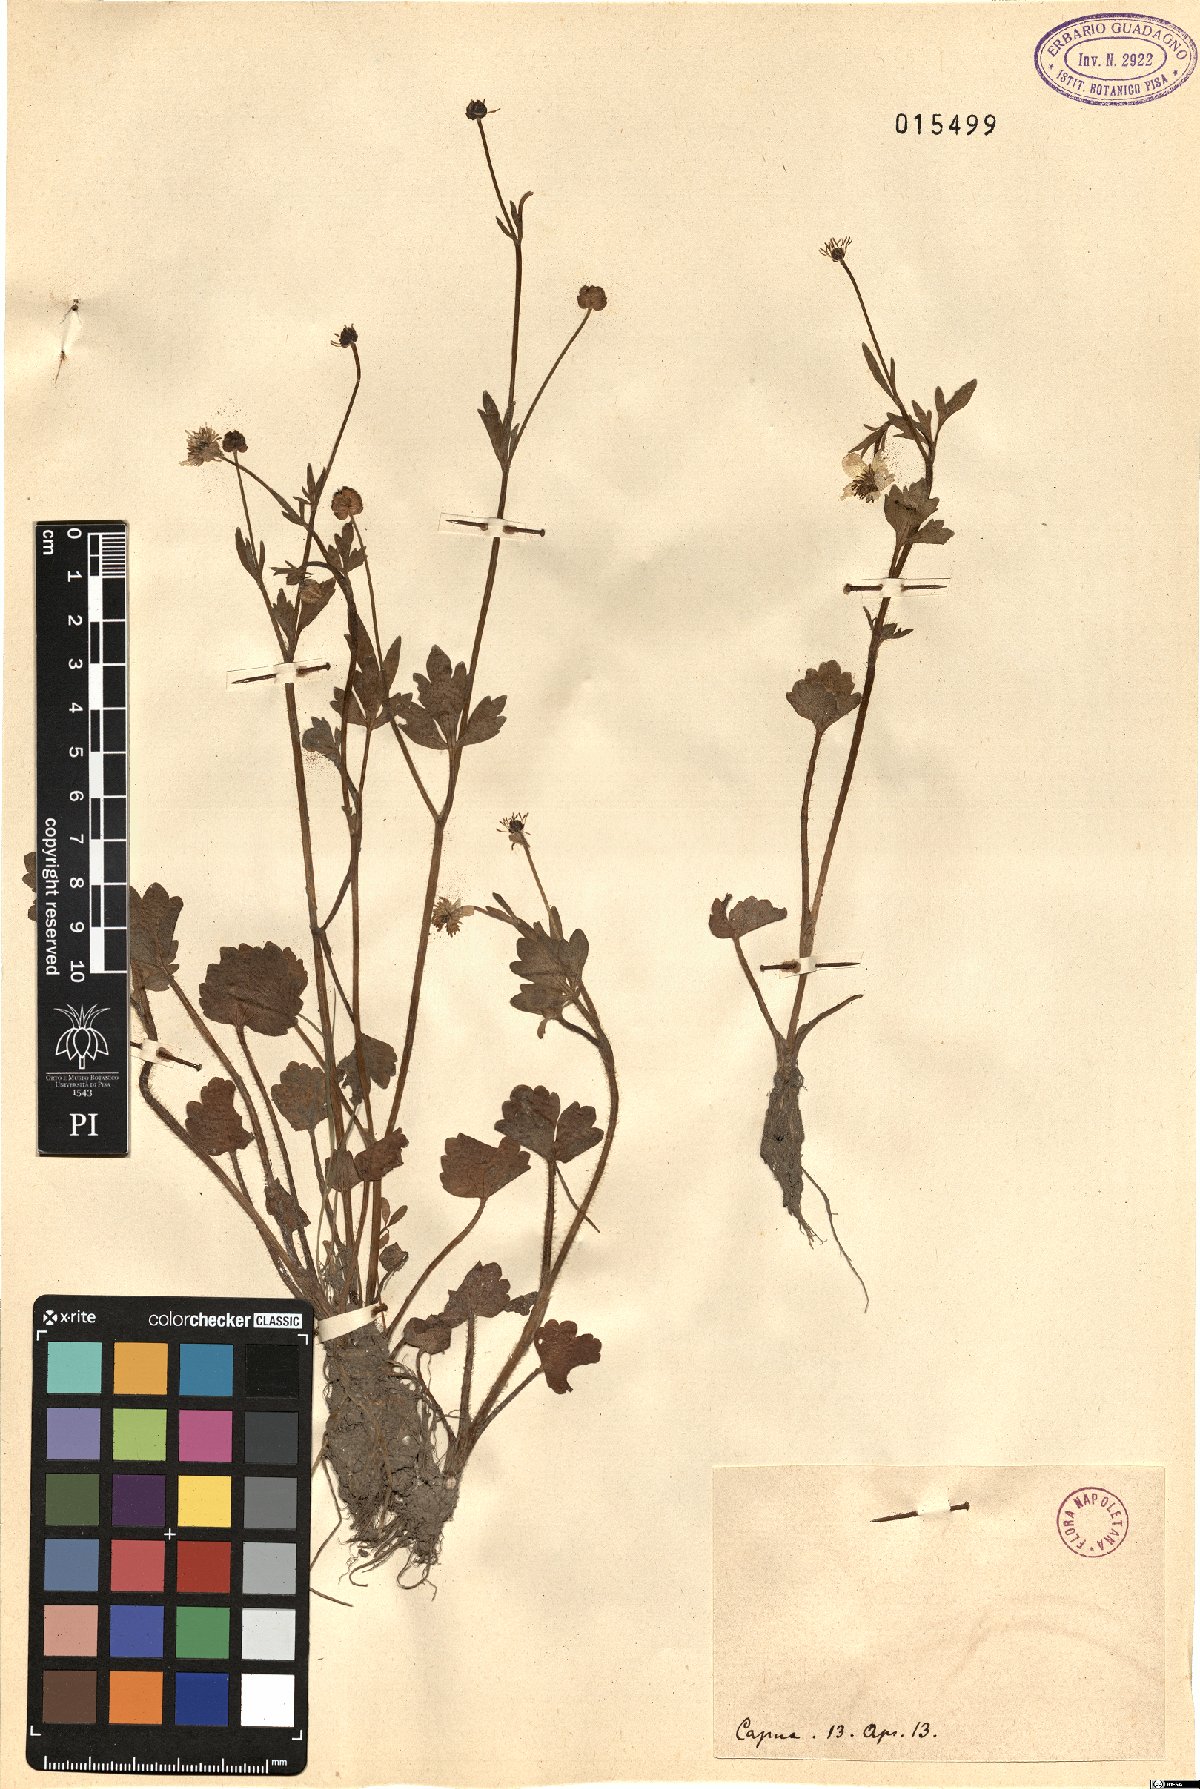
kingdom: Plantae
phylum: Tracheophyta
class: Magnoliopsida
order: Ranunculales
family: Ranunculaceae
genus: Ranunculus
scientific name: Ranunculus
